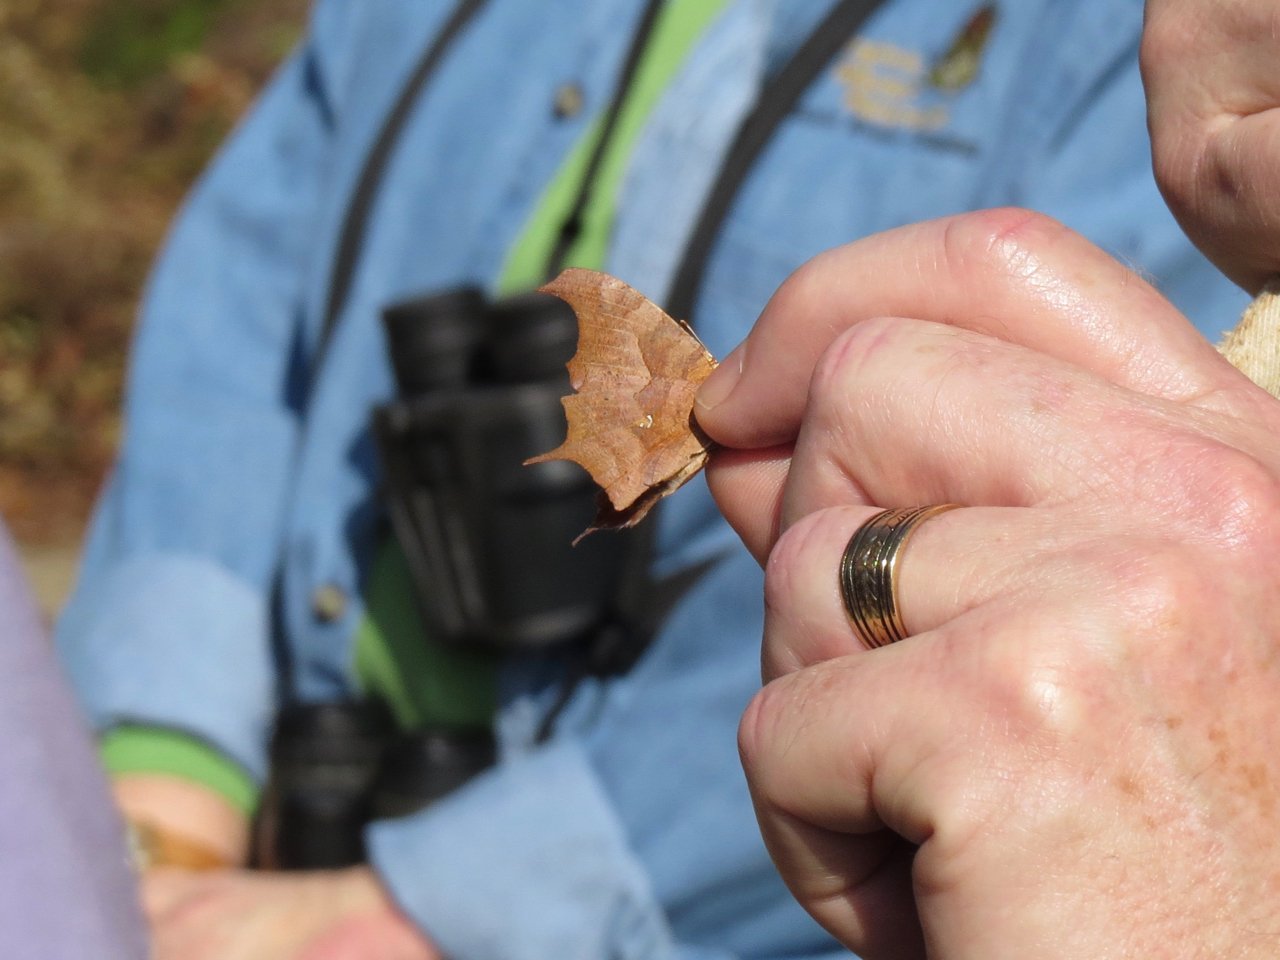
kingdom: Animalia
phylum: Arthropoda
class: Insecta
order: Lepidoptera
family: Nymphalidae
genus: Polygonia
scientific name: Polygonia interrogationis
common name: Question Mark
